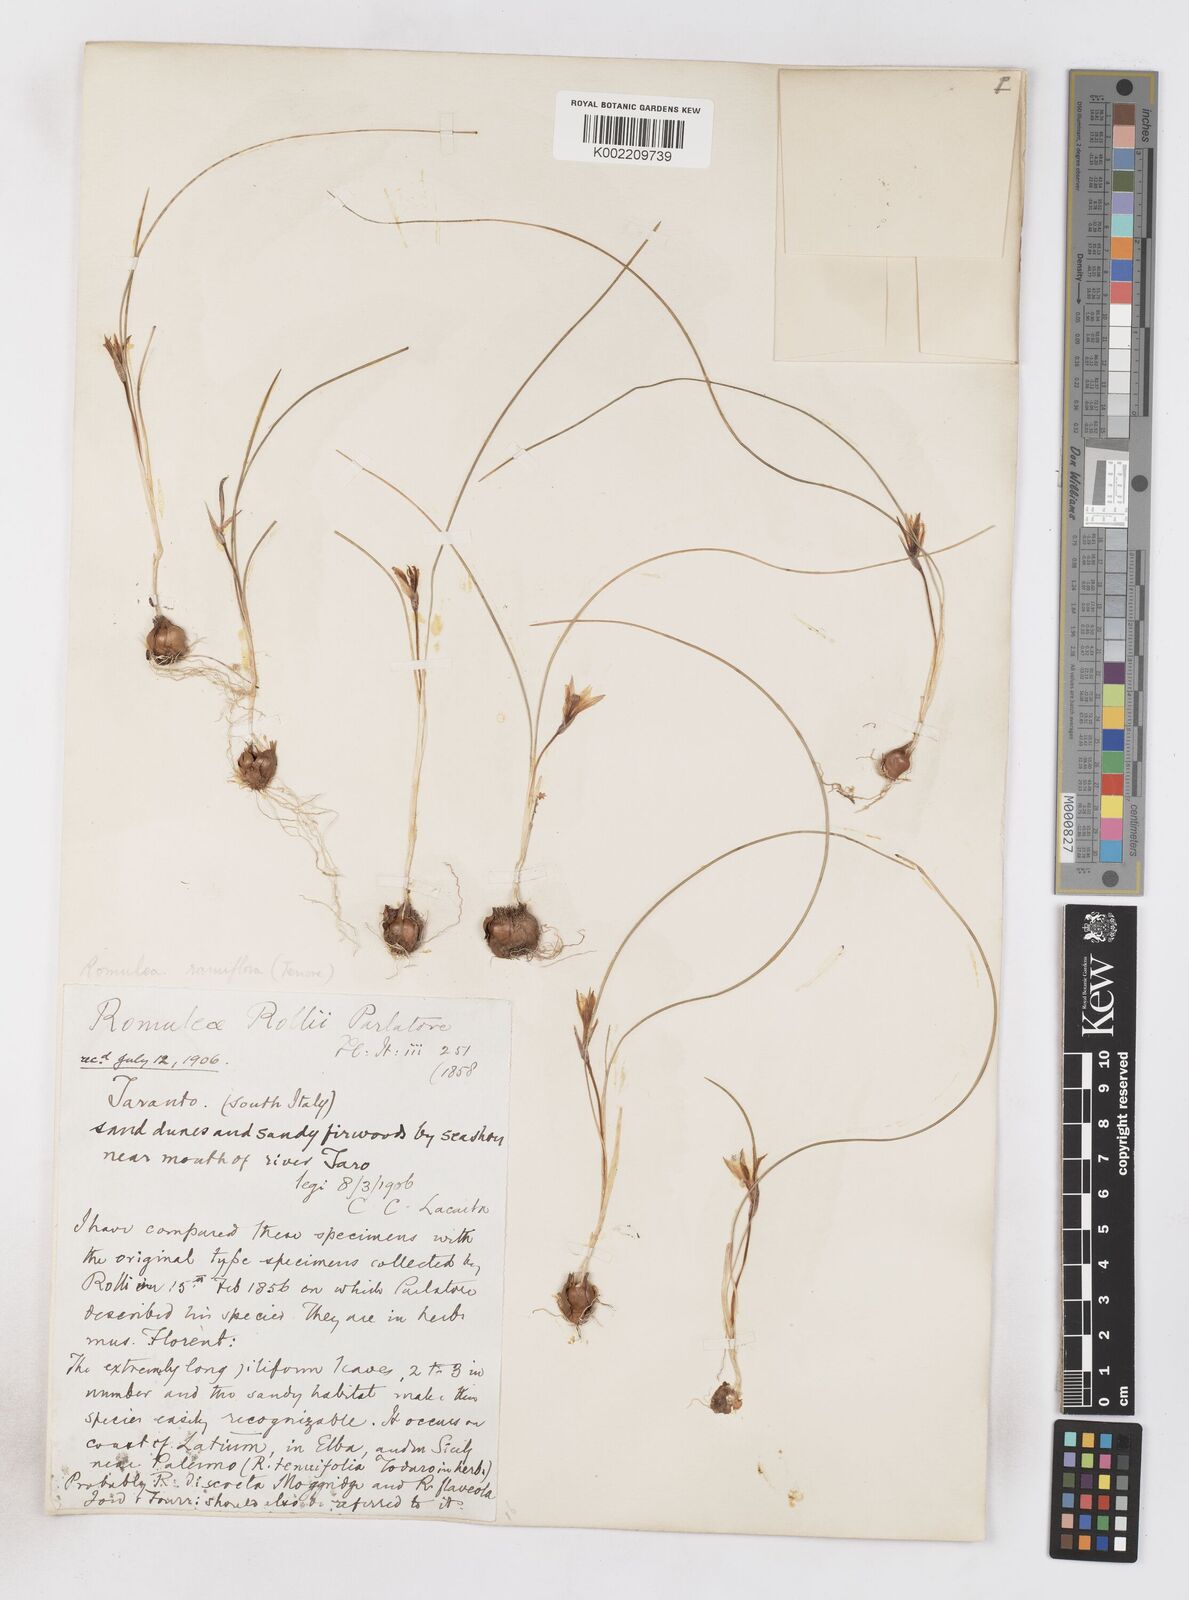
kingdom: Plantae
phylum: Tracheophyta
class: Liliopsida
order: Asparagales
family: Iridaceae
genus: Romulea
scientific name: Romulea columnae
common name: Sand-crocus
